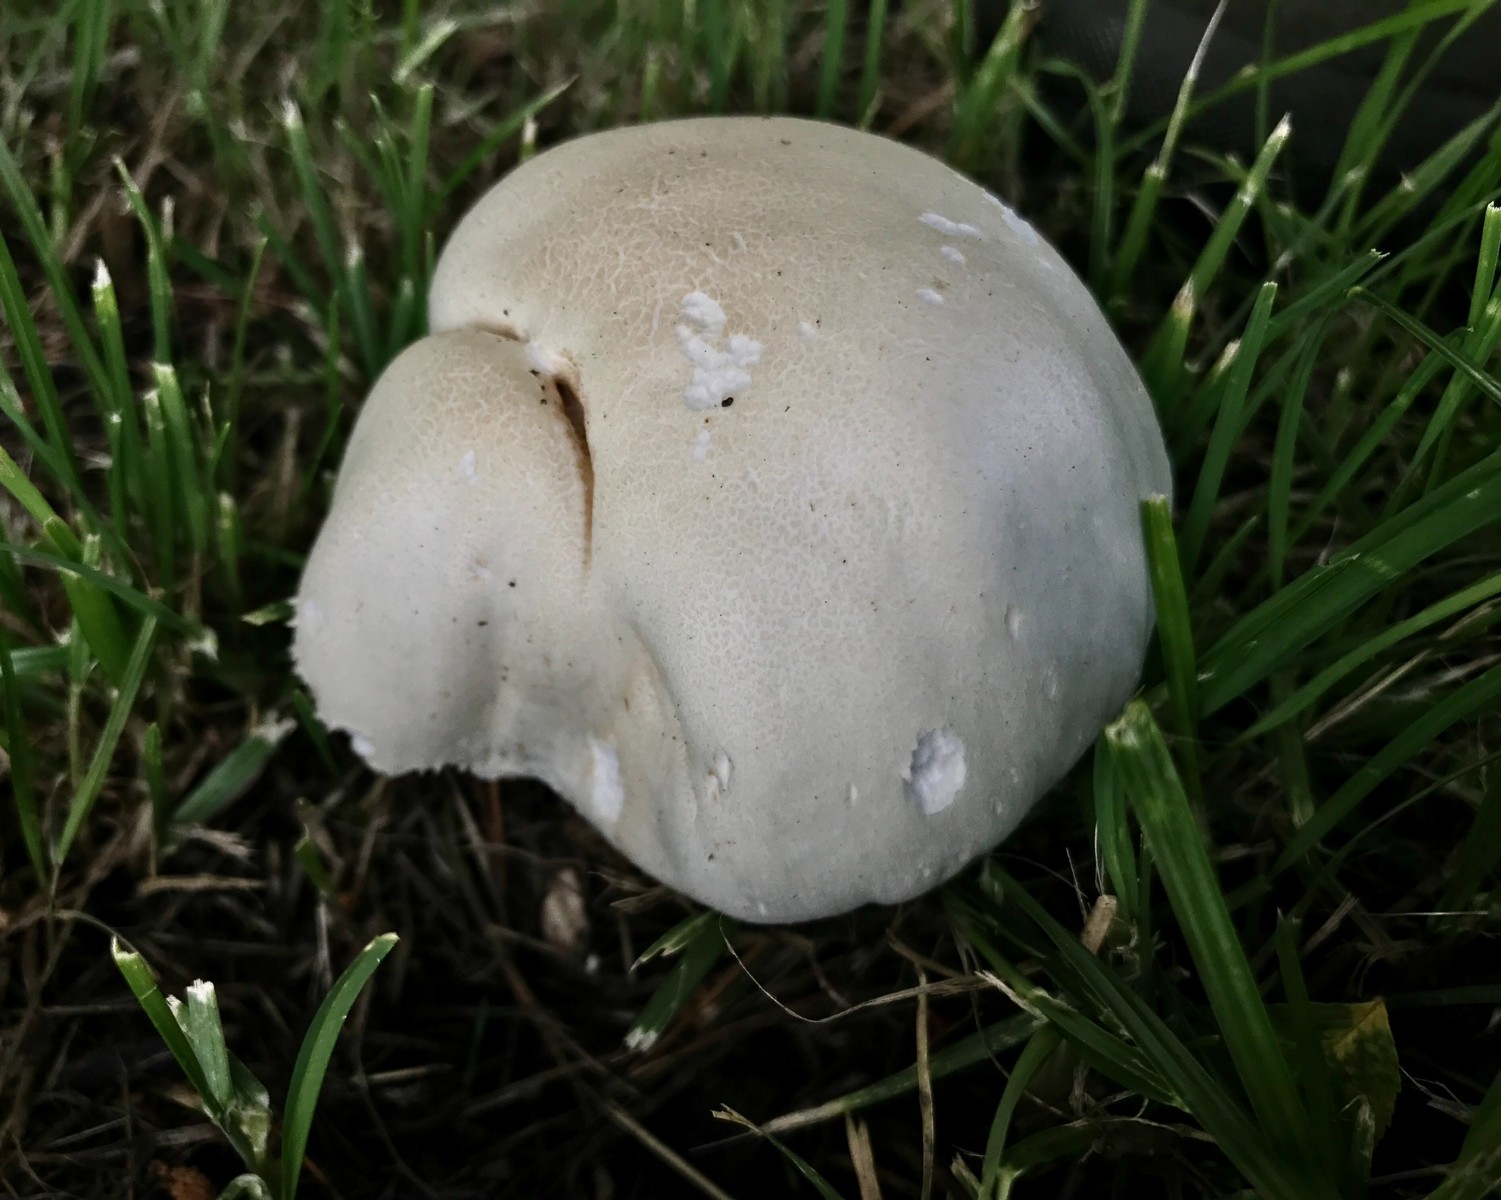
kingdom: Fungi
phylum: Basidiomycota
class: Agaricomycetes
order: Agaricales
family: Lycoperdaceae
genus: Calvatia
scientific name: Calvatia gigantea
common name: kæmpestøvbold
